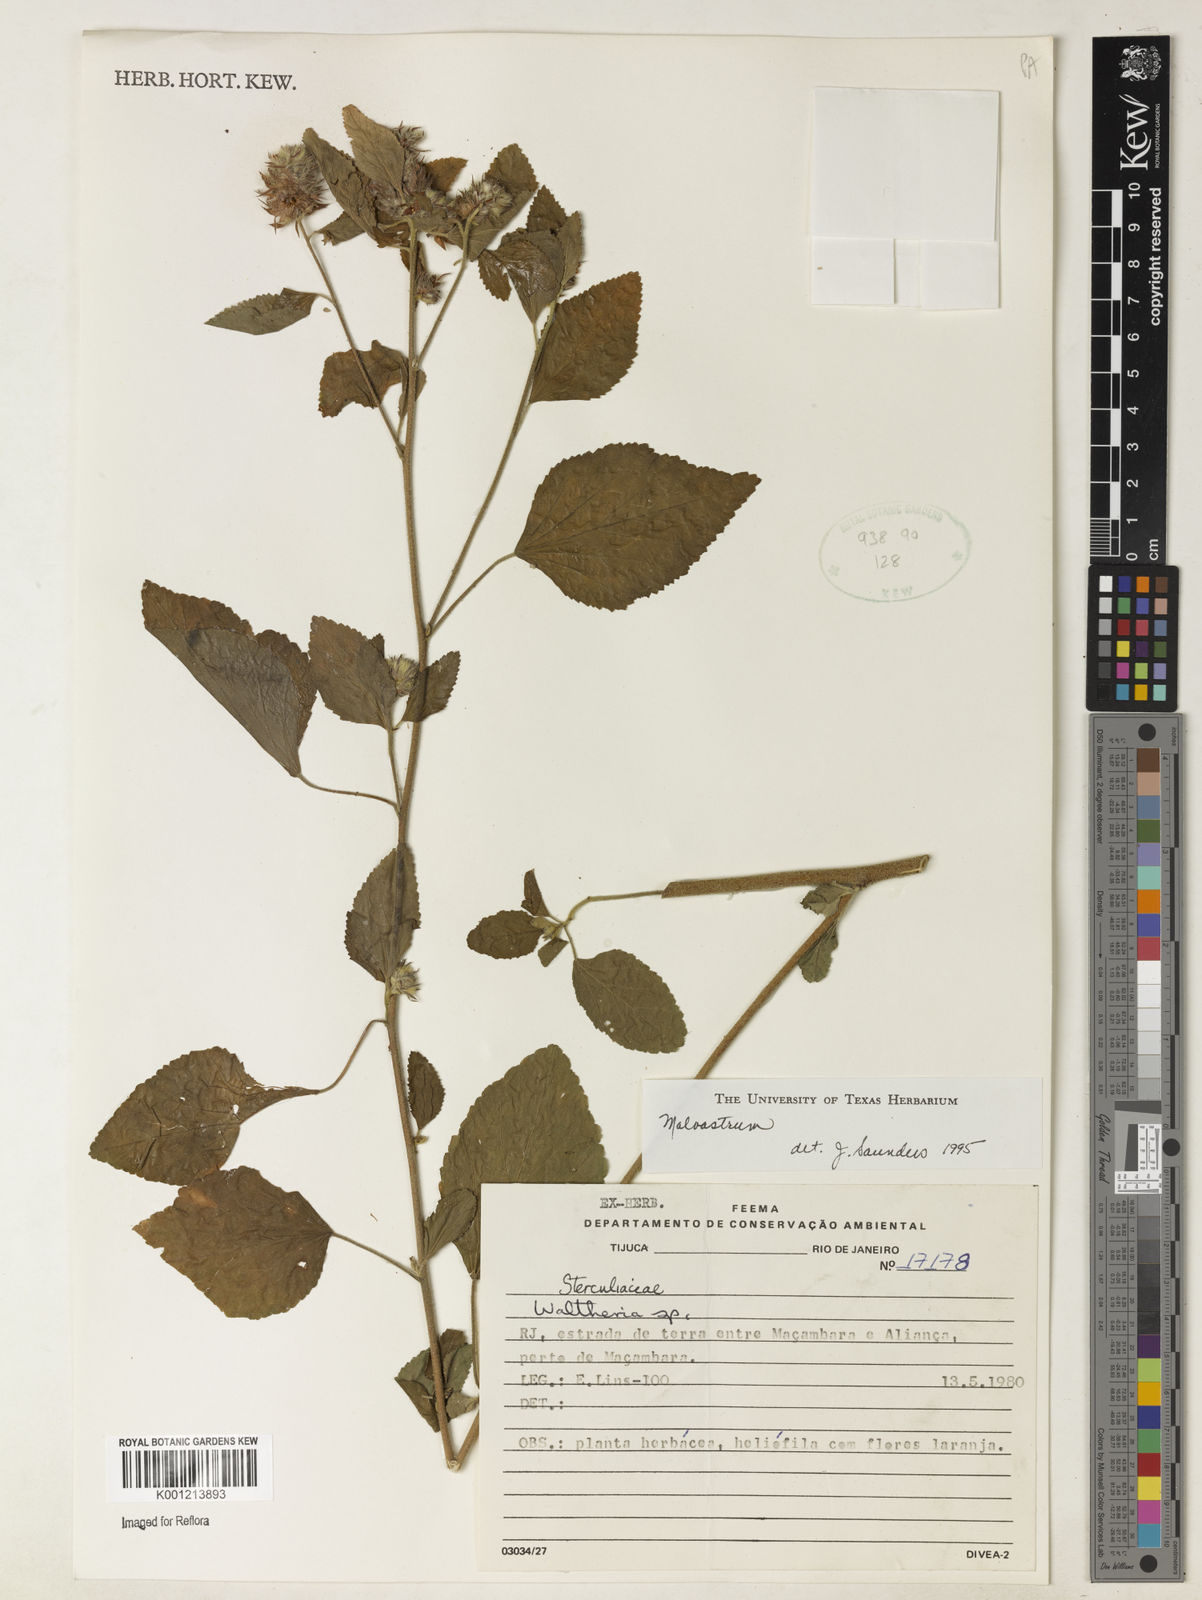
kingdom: Plantae
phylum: Tracheophyta
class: Magnoliopsida
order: Malvales
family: Malvaceae
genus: Malvastrum
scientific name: Malvastrum
